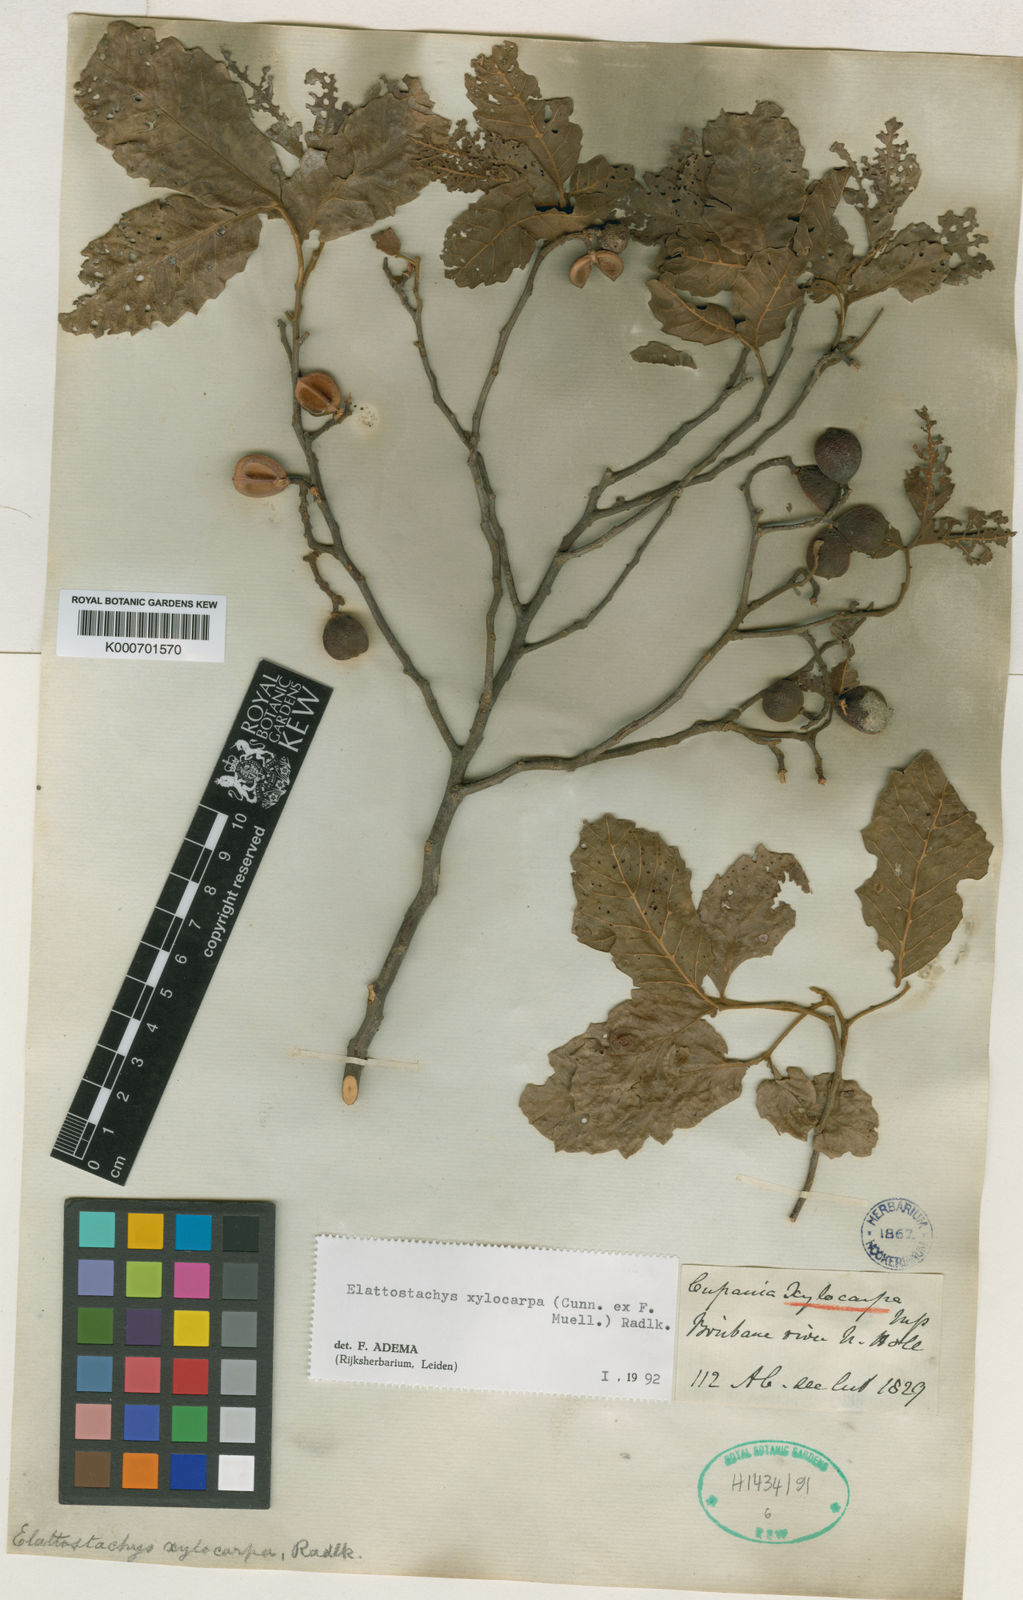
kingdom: Plantae
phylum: Tracheophyta
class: Magnoliopsida
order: Sapindales
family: Sapindaceae
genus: Elattostachys
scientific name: Elattostachys xylocarpa
